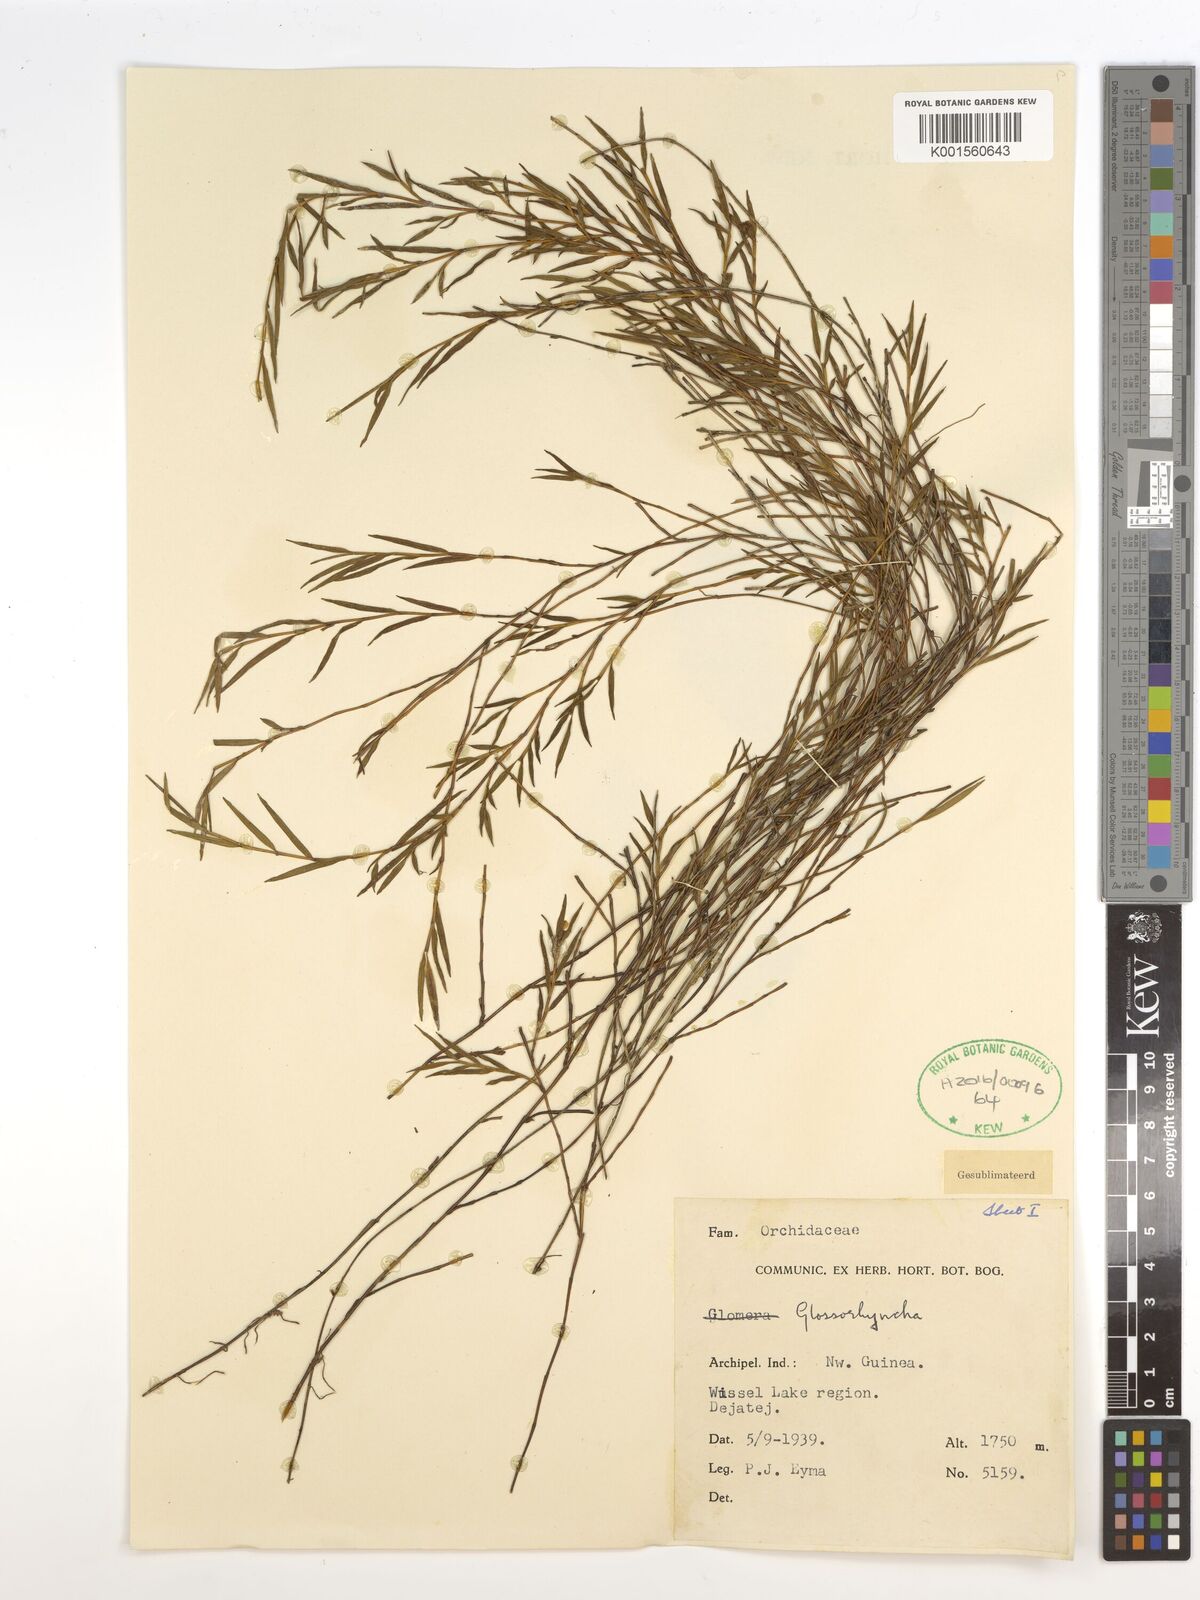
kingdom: Plantae
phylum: Tracheophyta
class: Liliopsida
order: Asparagales
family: Orchidaceae
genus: Glomera
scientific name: Glomera
